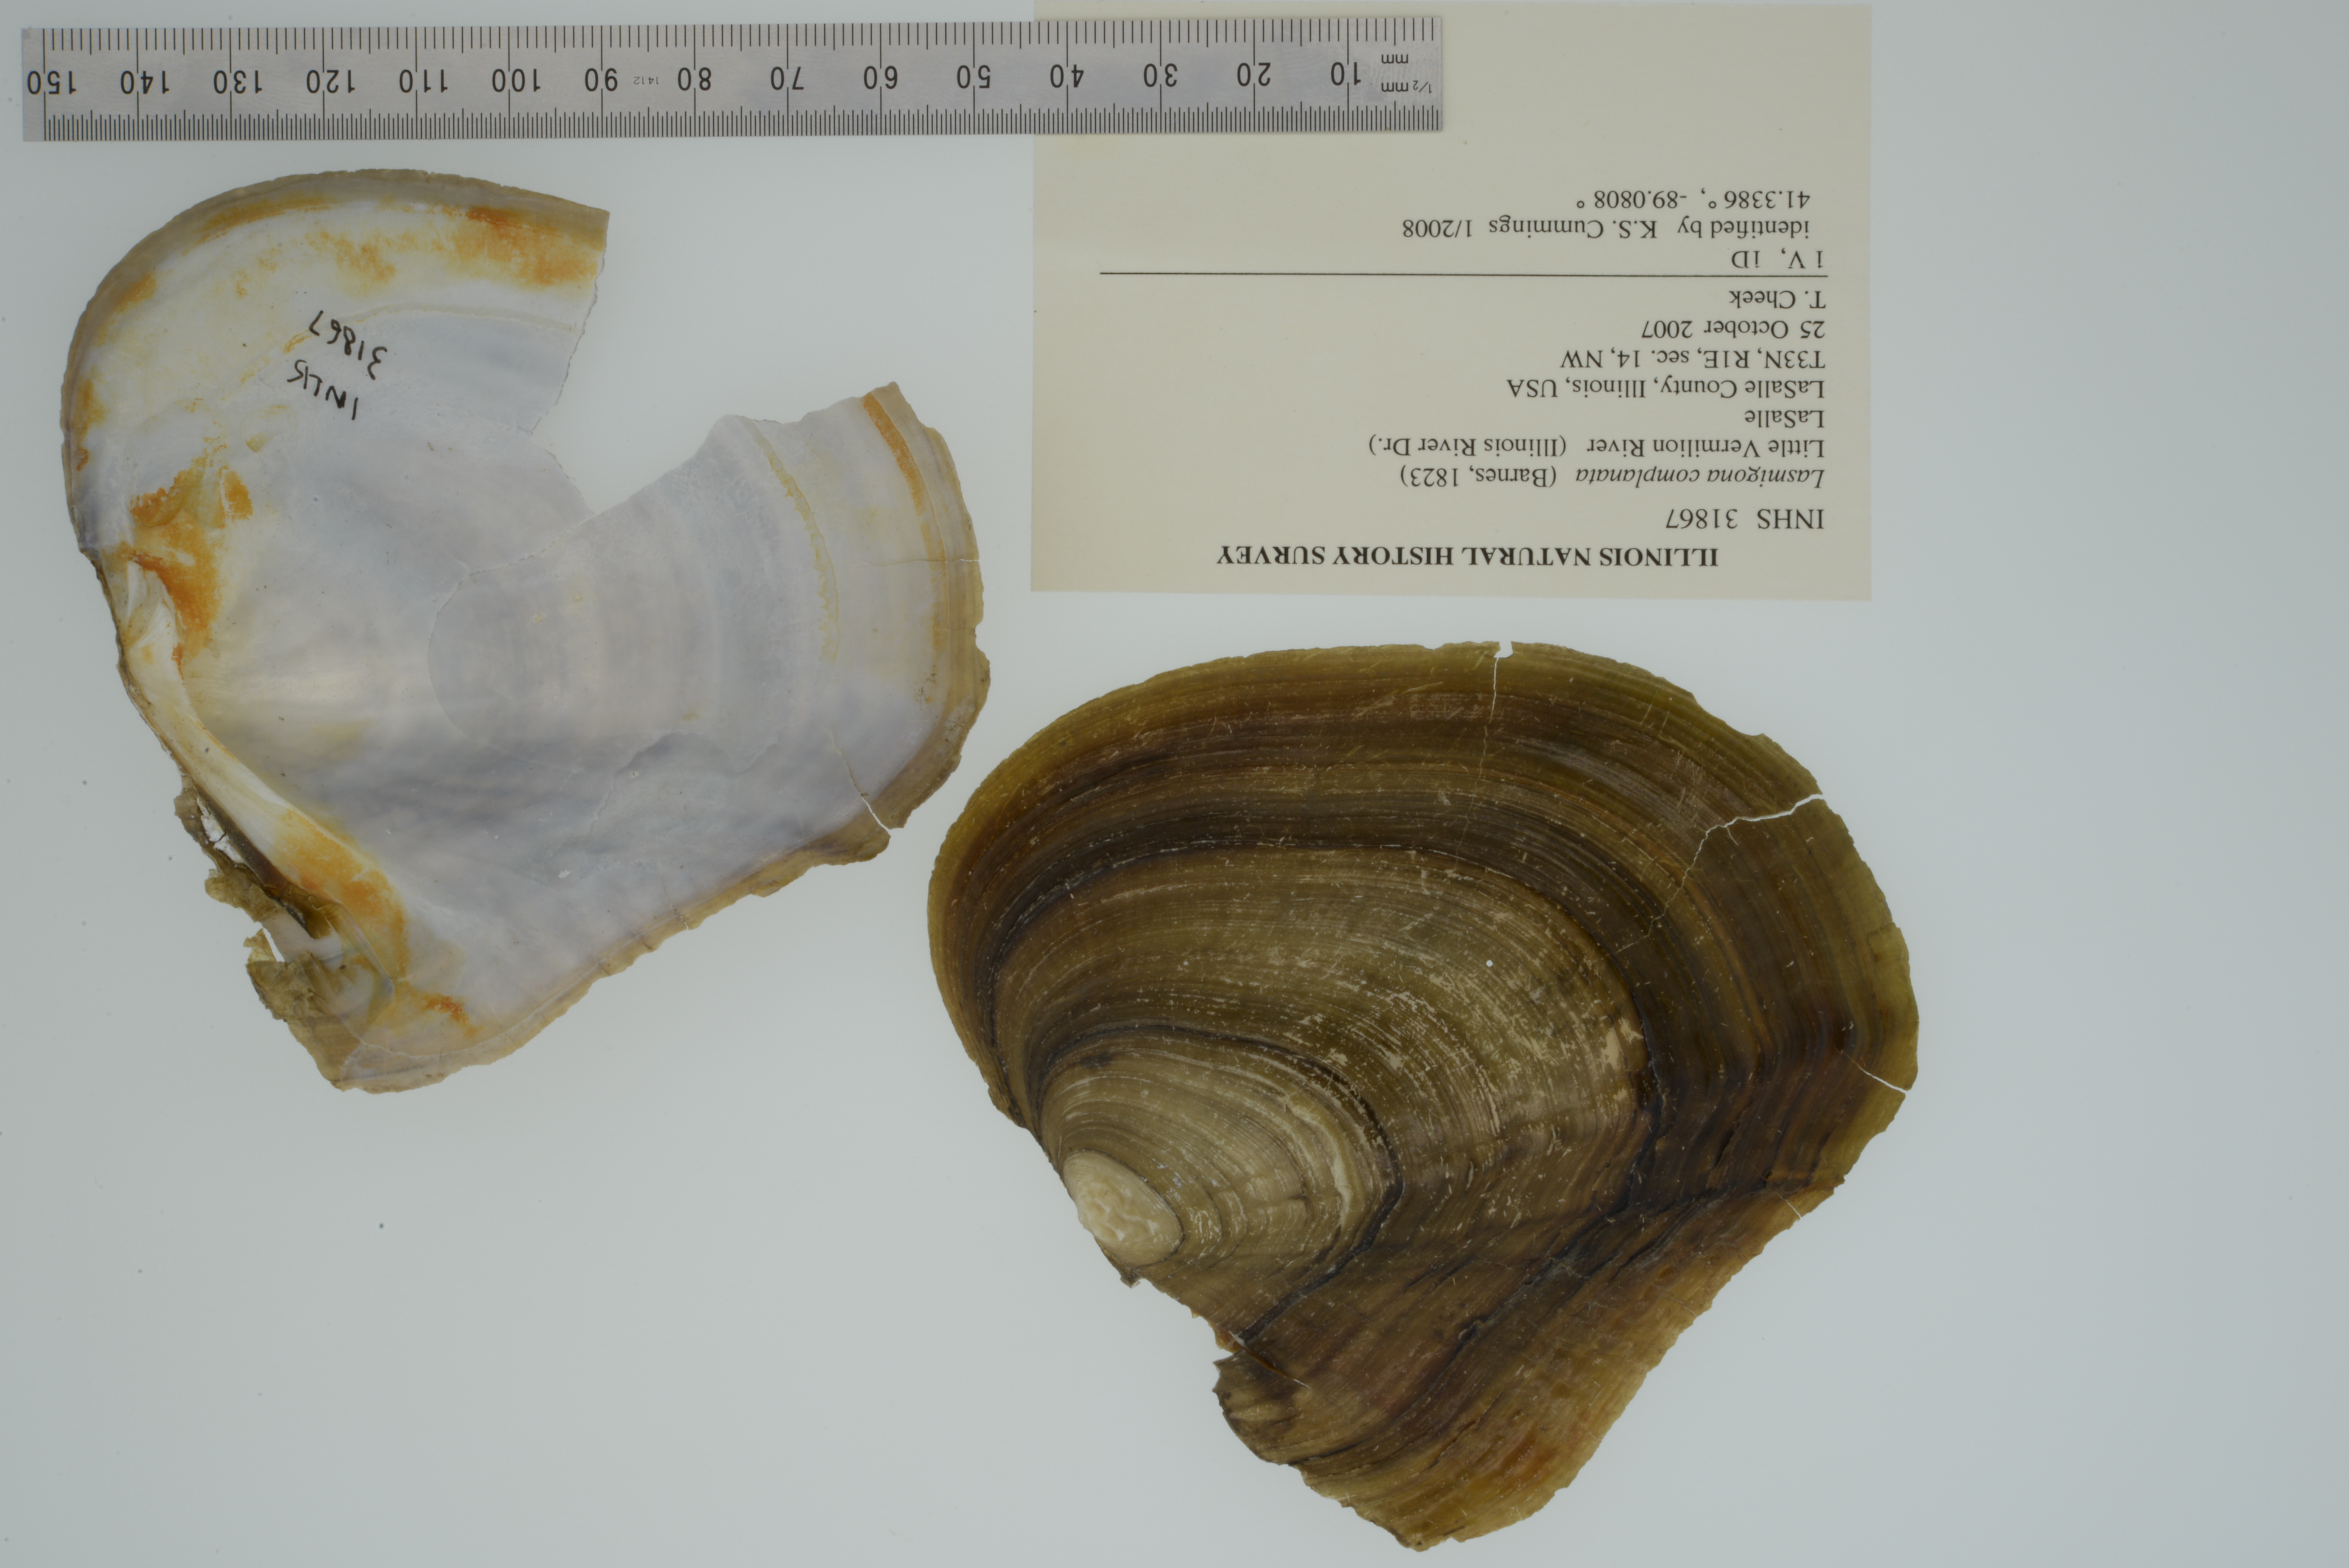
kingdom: Animalia
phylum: Mollusca
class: Bivalvia
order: Unionida
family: Unionidae
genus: Lasmigona
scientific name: Lasmigona complanata
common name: White heelsplitter
